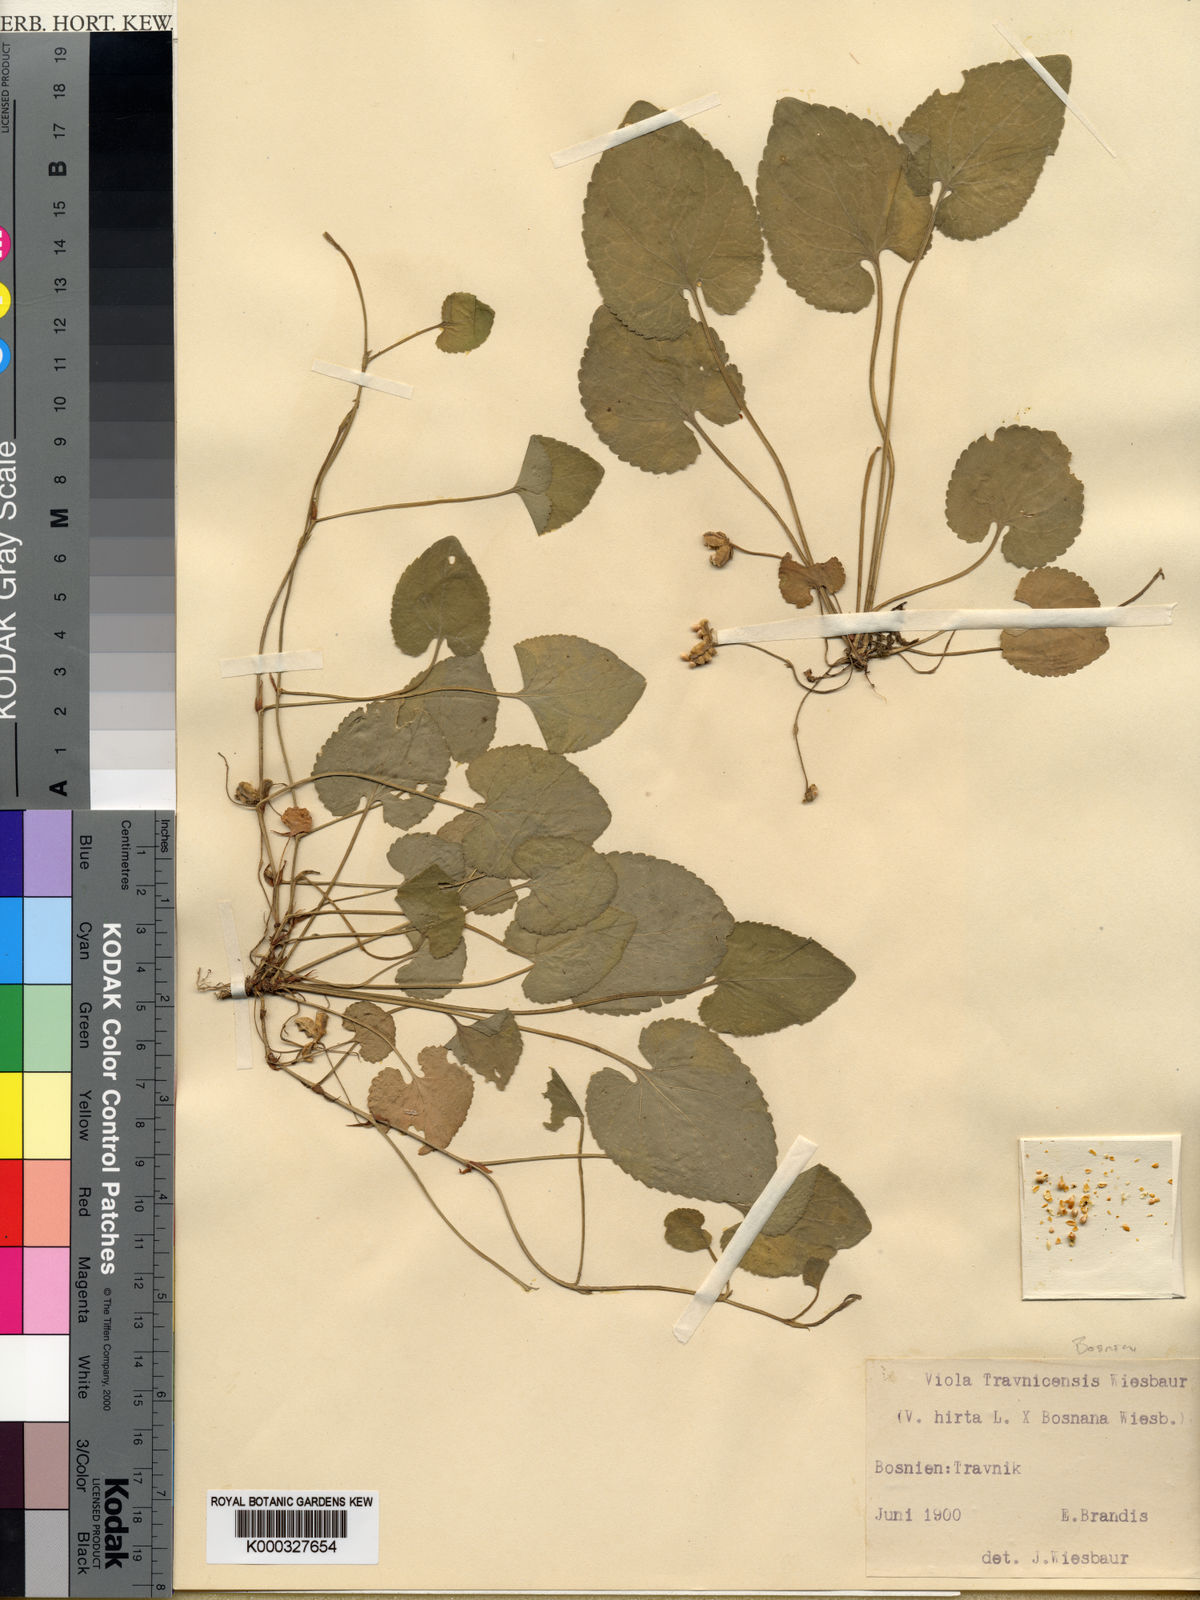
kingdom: Plantae
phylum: Tracheophyta
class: Magnoliopsida
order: Malpighiales
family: Violaceae
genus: Viola
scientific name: Viola hirta
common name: Hairy violet
